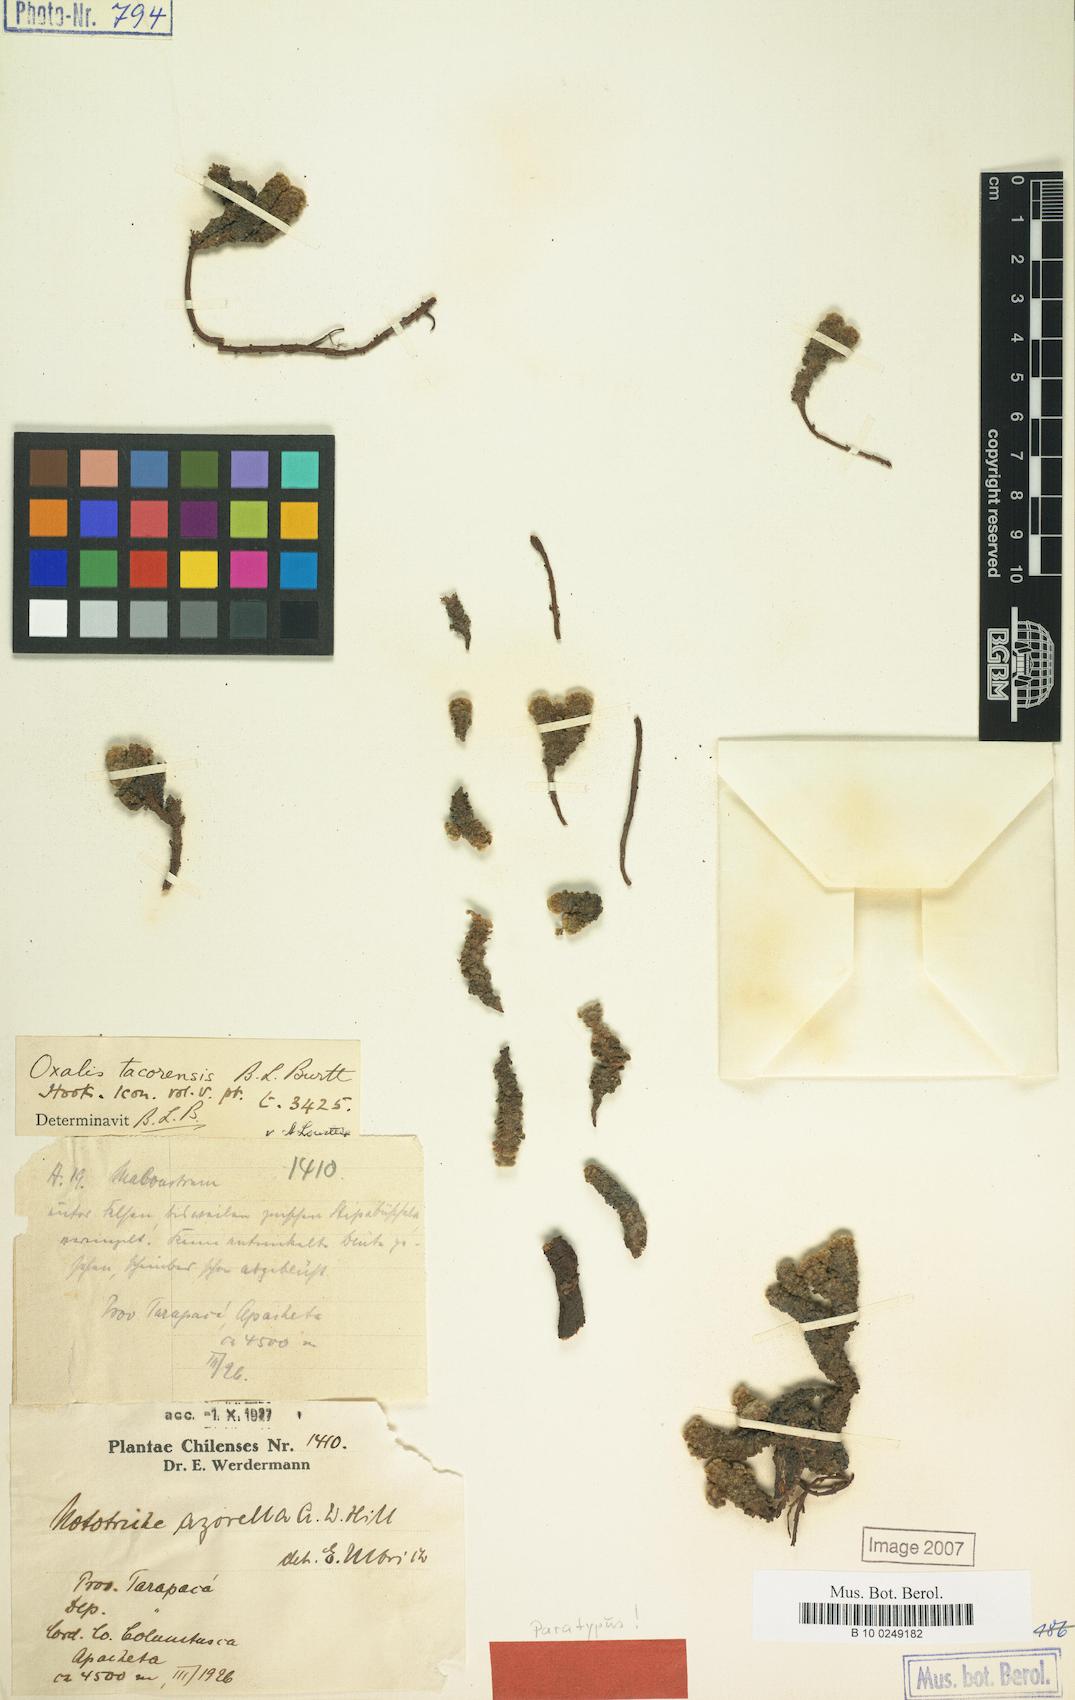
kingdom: Plantae
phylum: Tracheophyta
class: Magnoliopsida
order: Oxalidales
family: Oxalidaceae
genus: Oxalis
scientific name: Oxalis tacorensis
